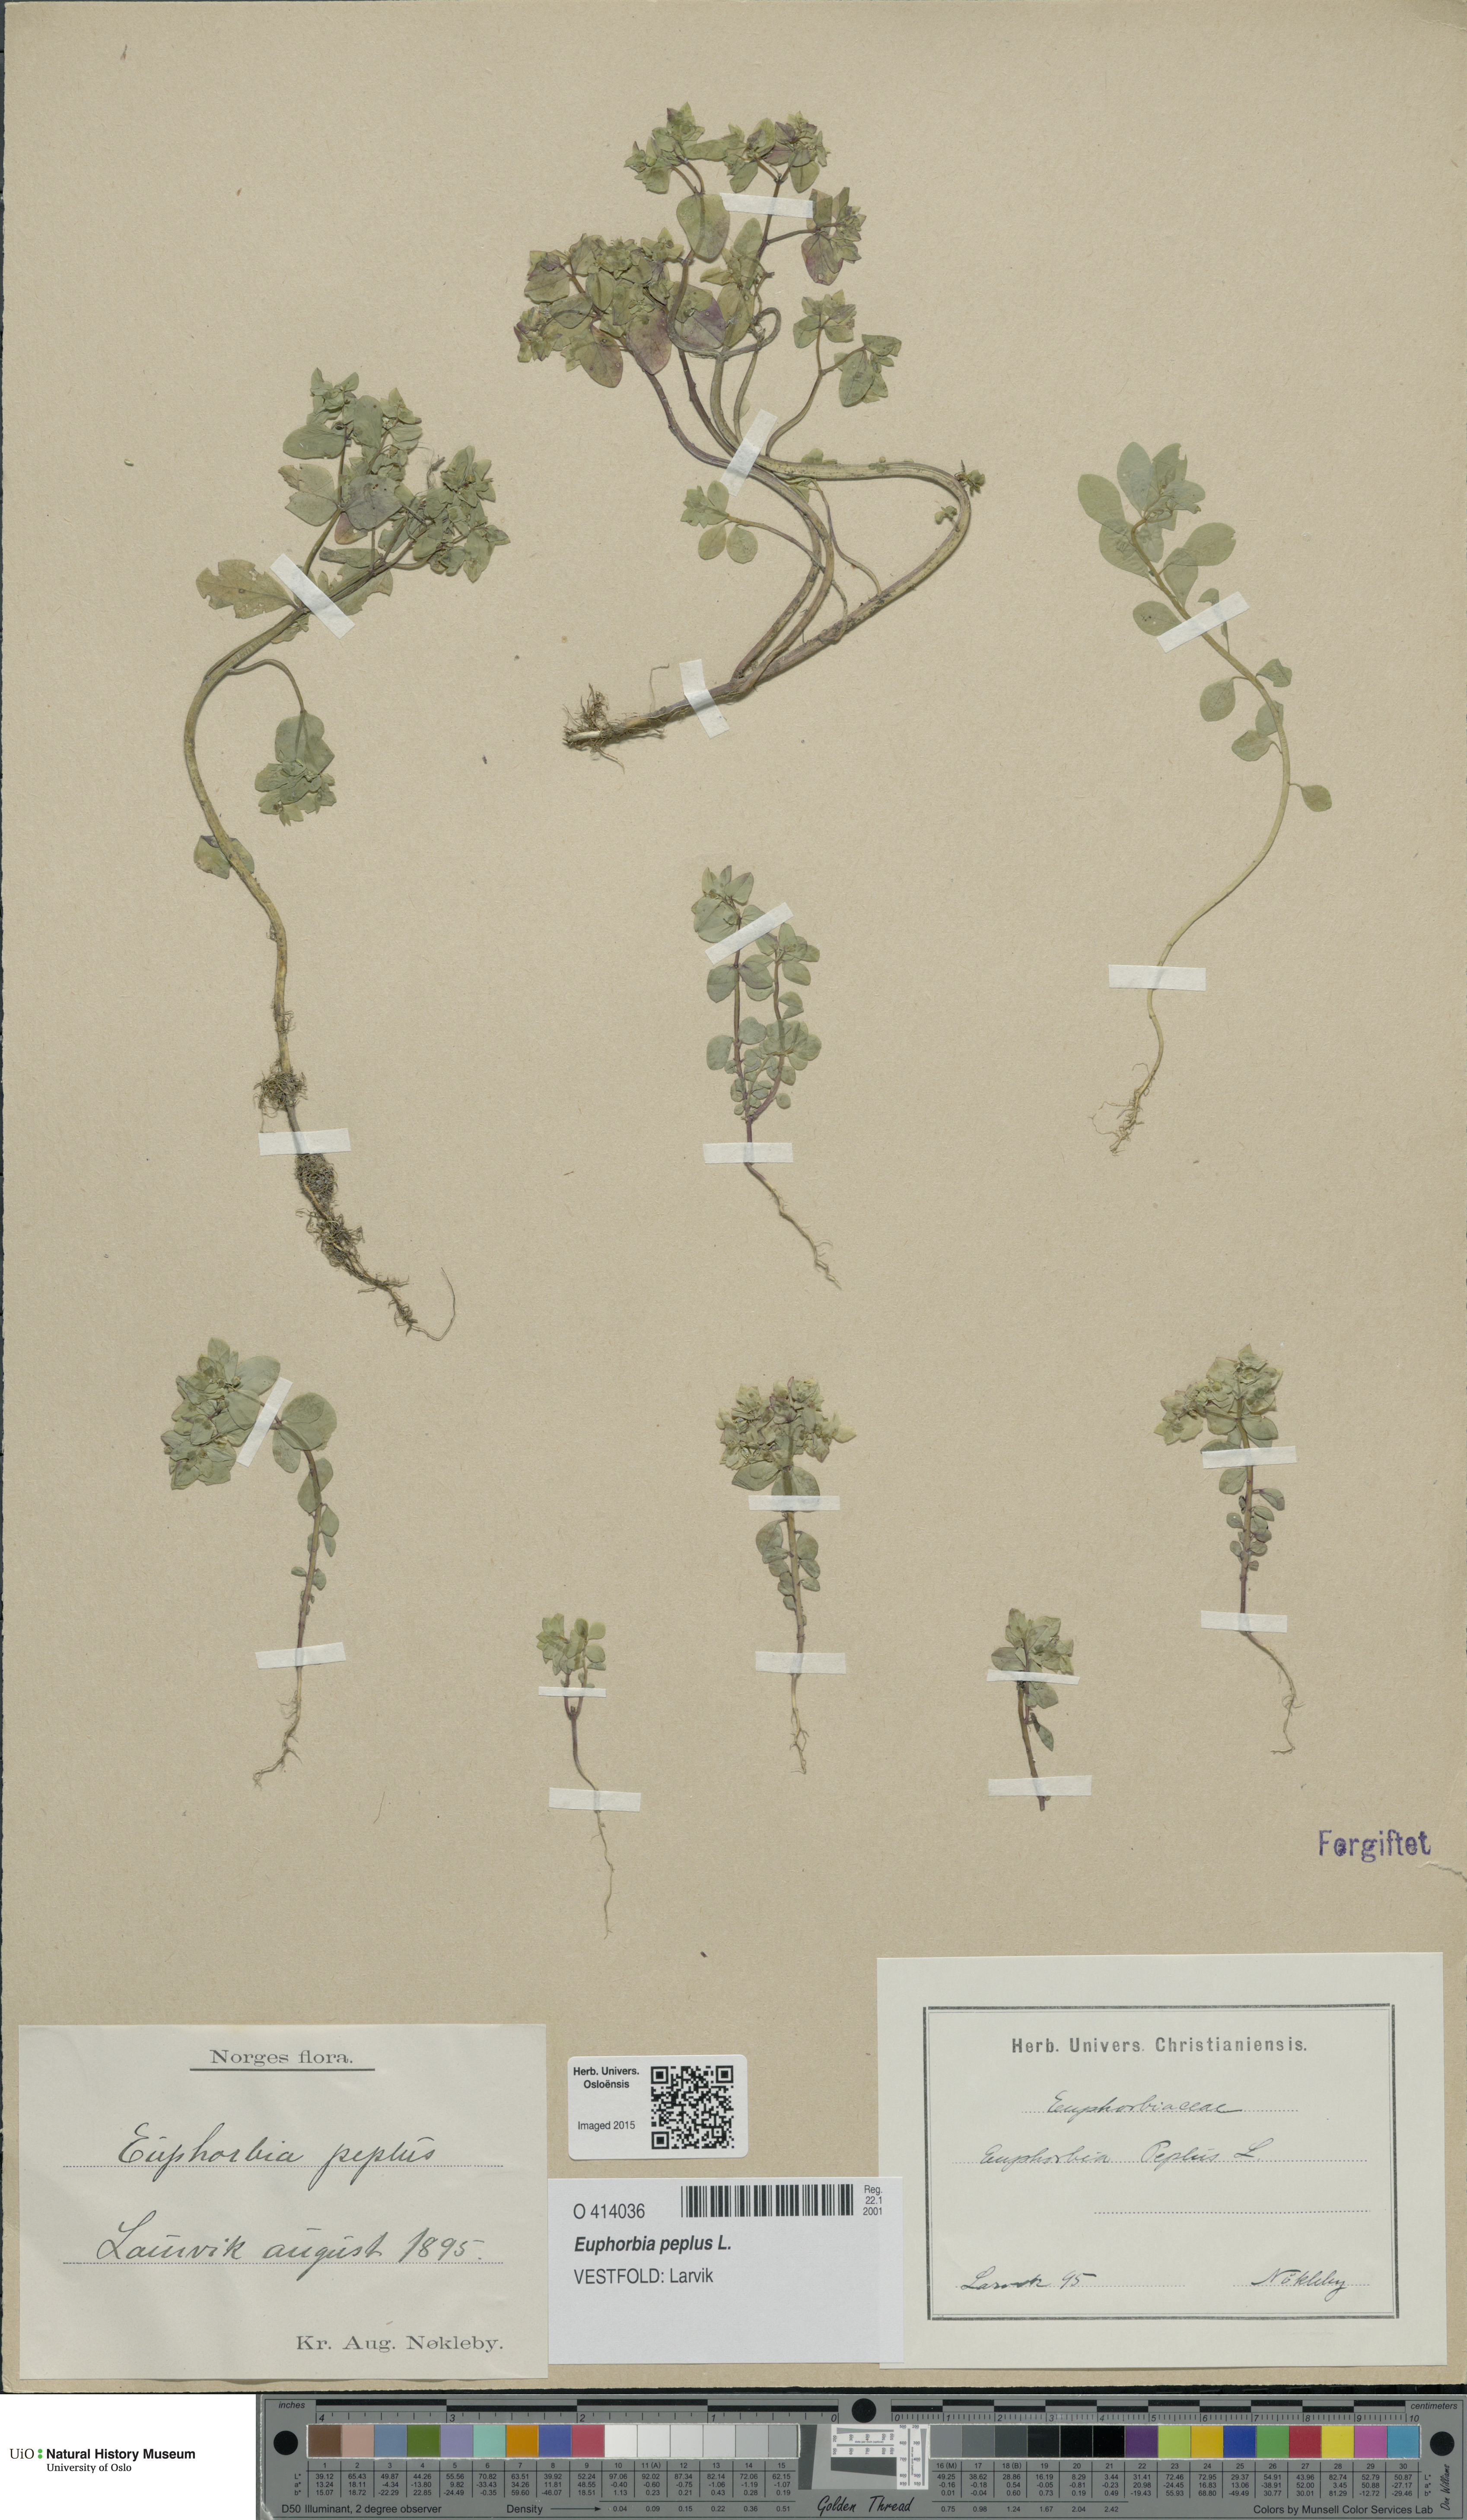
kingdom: Plantae
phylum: Tracheophyta
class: Magnoliopsida
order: Malpighiales
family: Euphorbiaceae
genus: Euphorbia
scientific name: Euphorbia peplus
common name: Petty spurge
